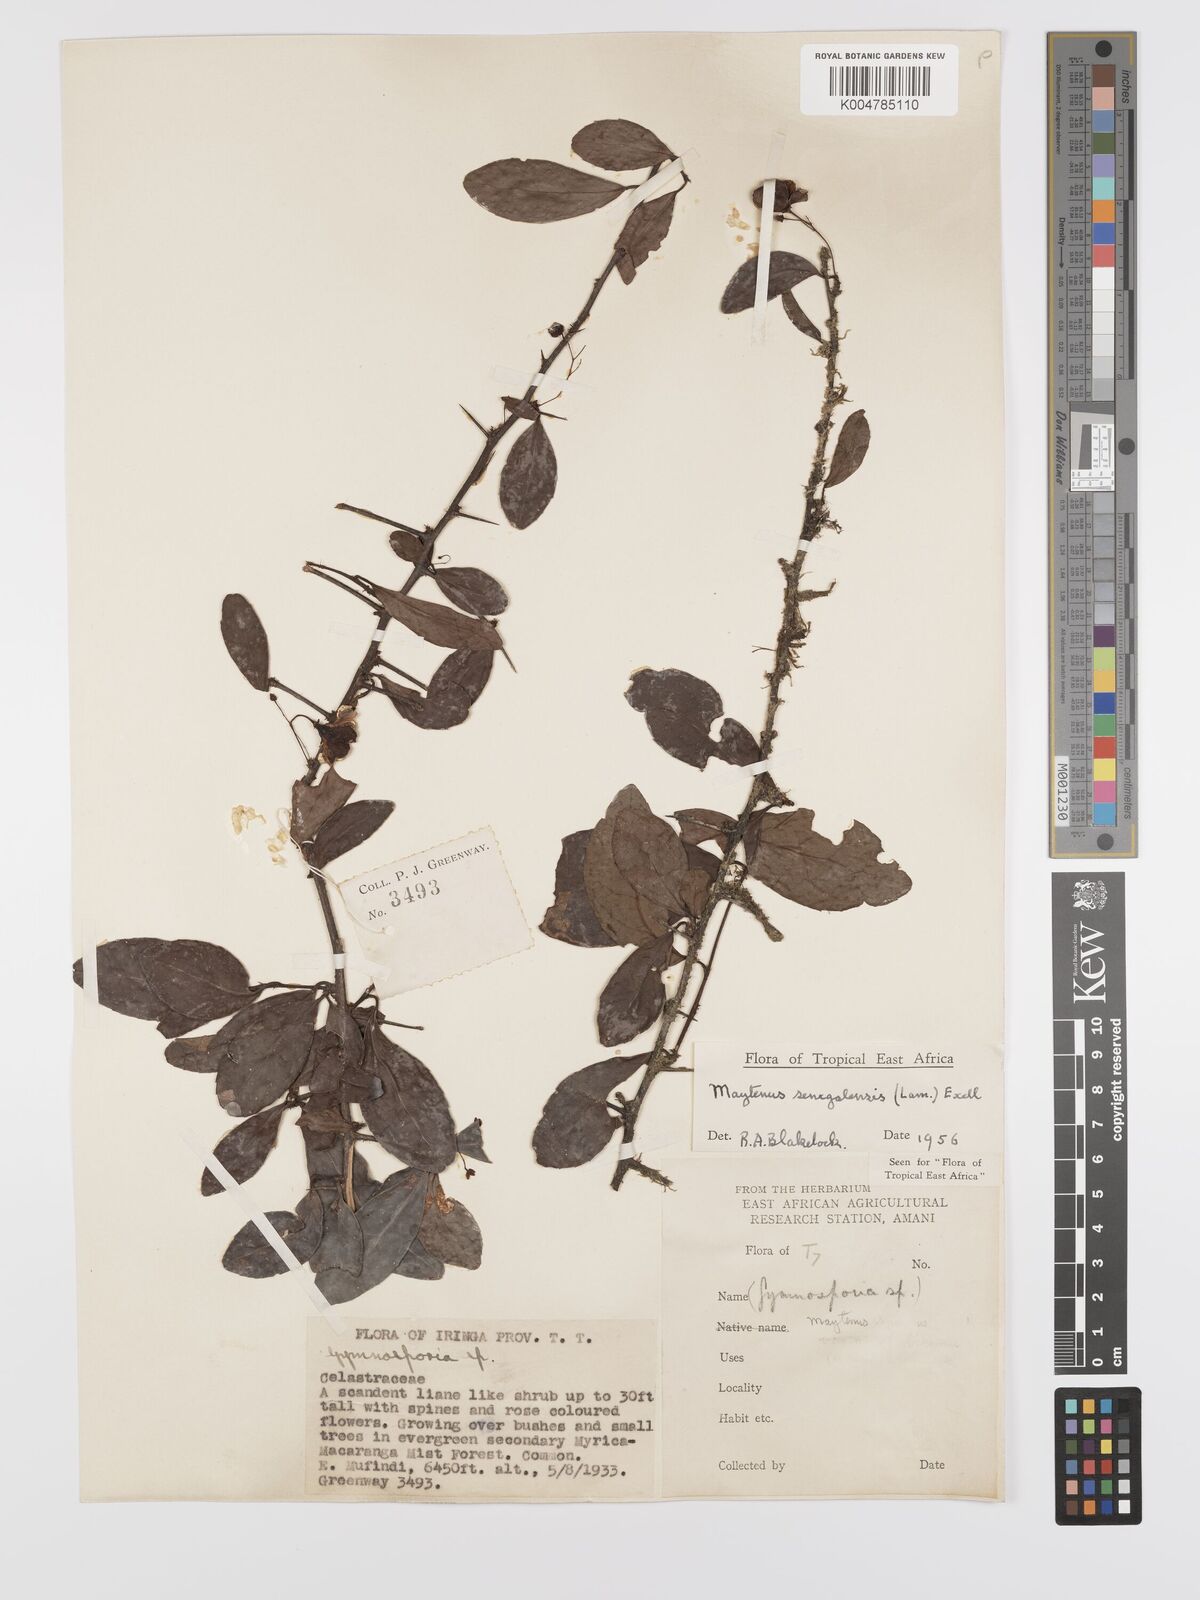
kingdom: Plantae
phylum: Tracheophyta
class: Magnoliopsida
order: Celastrales
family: Celastraceae
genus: Gymnosporia
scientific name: Gymnosporia harveyana
